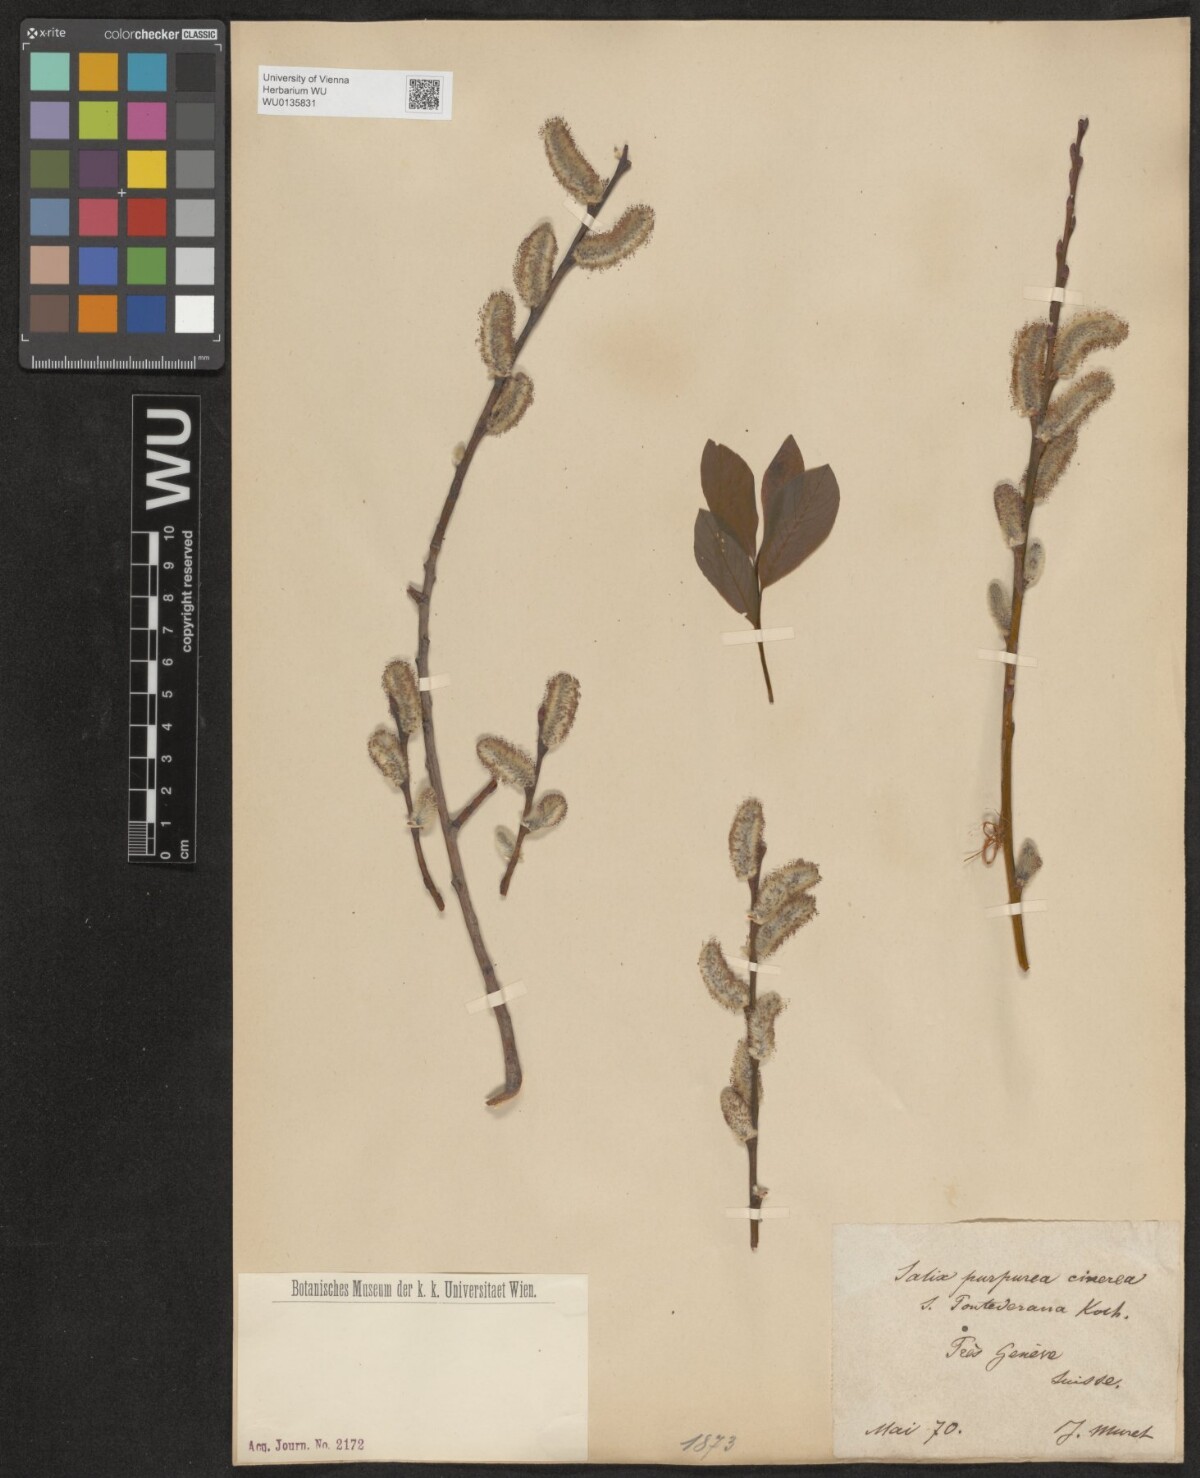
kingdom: Plantae
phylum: Tracheophyta
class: Magnoliopsida
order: Malpighiales
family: Salicaceae
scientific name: Salicaceae
